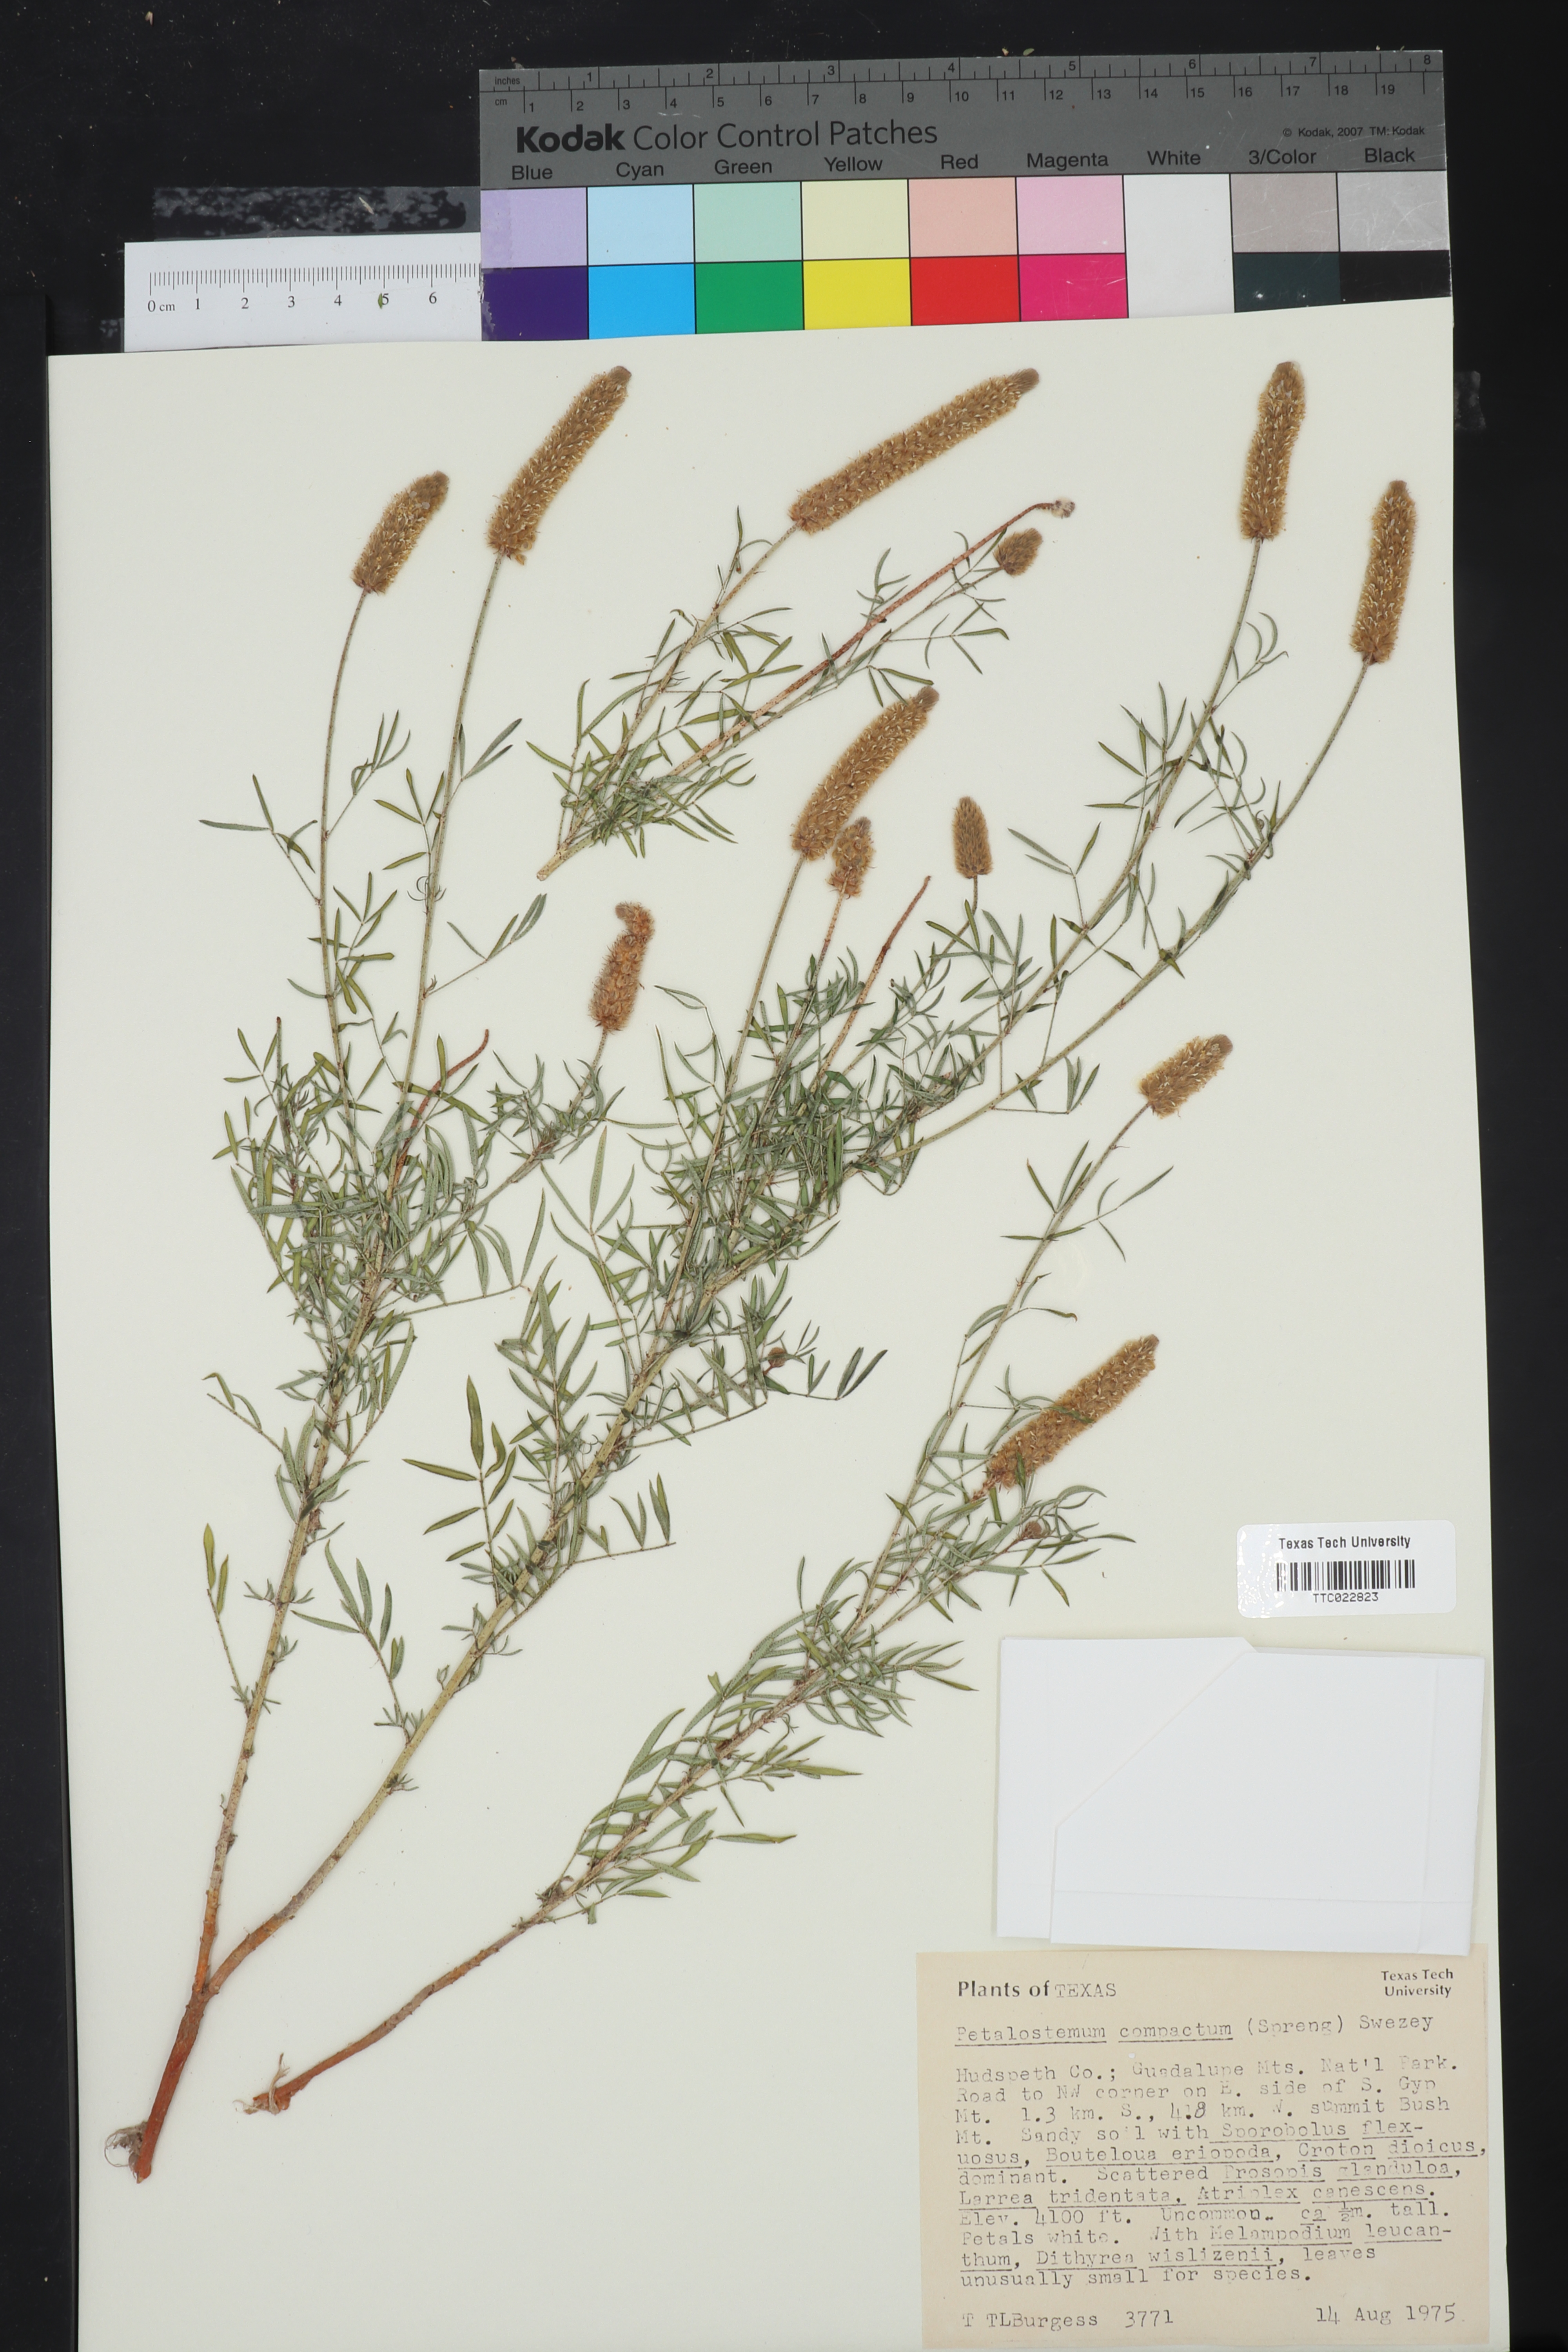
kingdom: Plantae
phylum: Tracheophyta
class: Magnoliopsida
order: Fabales
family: Fabaceae
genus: Dalea
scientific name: Dalea compacta
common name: Compact prairie-clover
